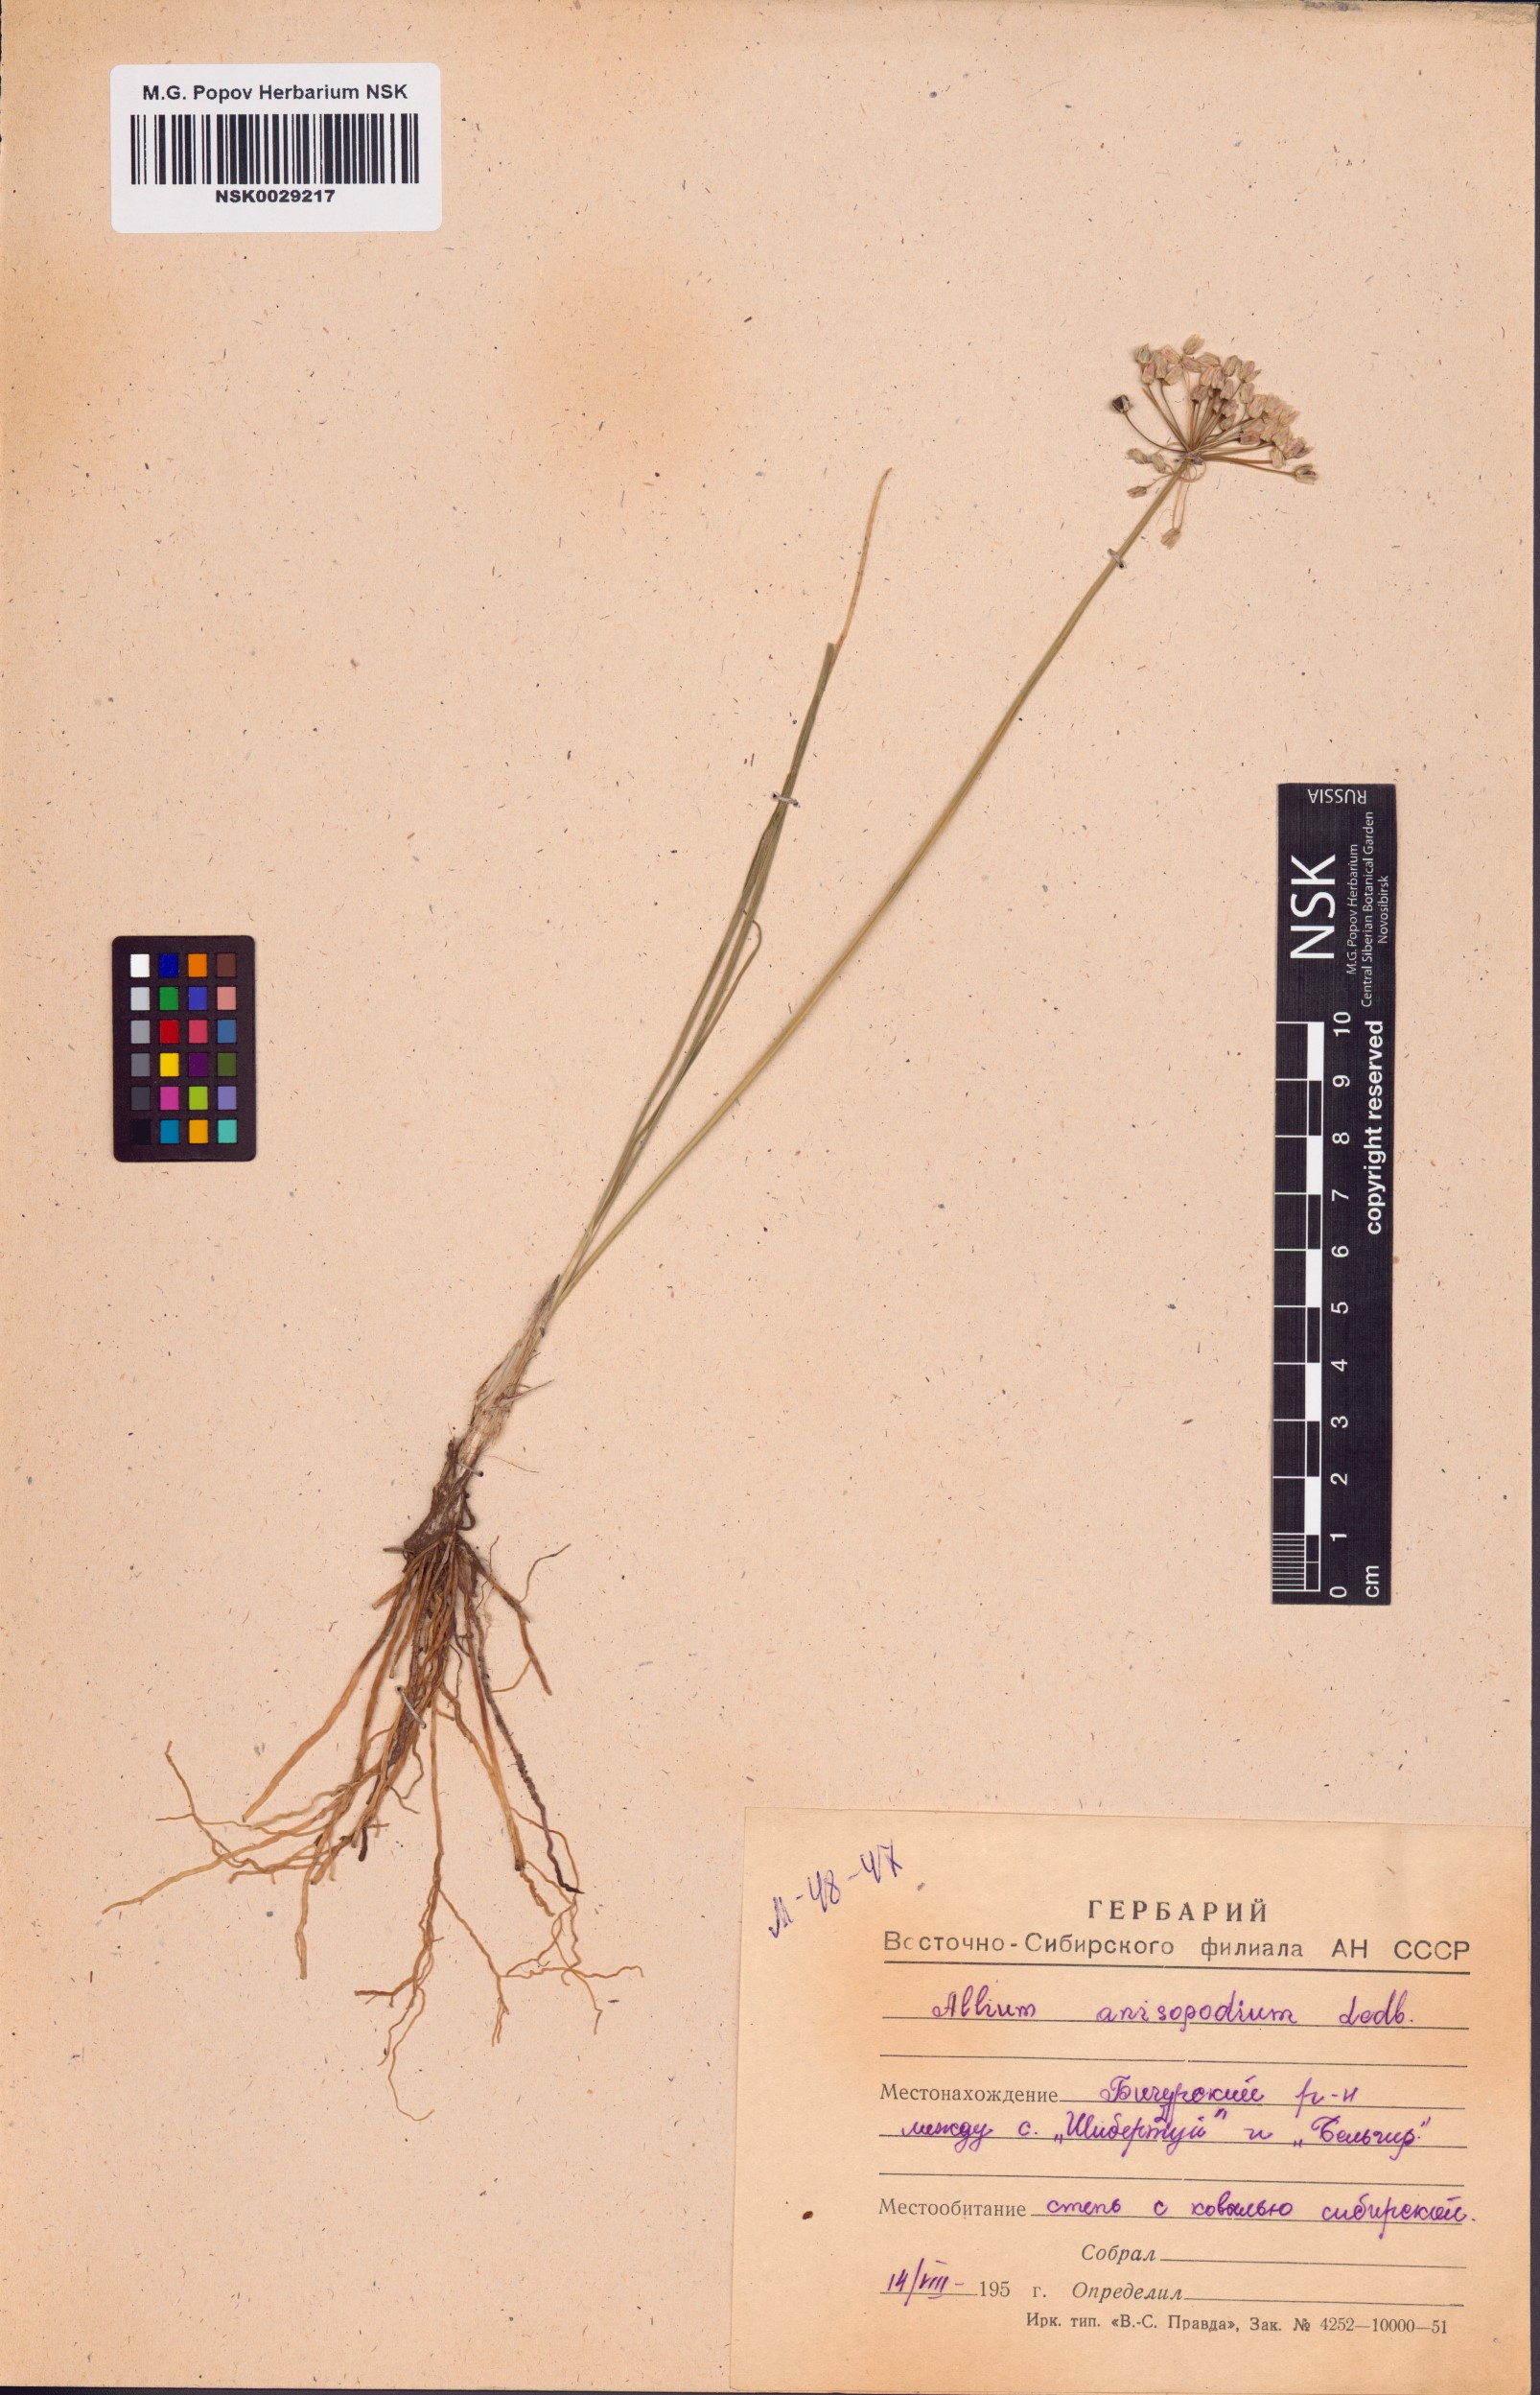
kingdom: Plantae
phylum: Tracheophyta
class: Liliopsida
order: Asparagales
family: Amaryllidaceae
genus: Allium
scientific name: Allium anisopodium
